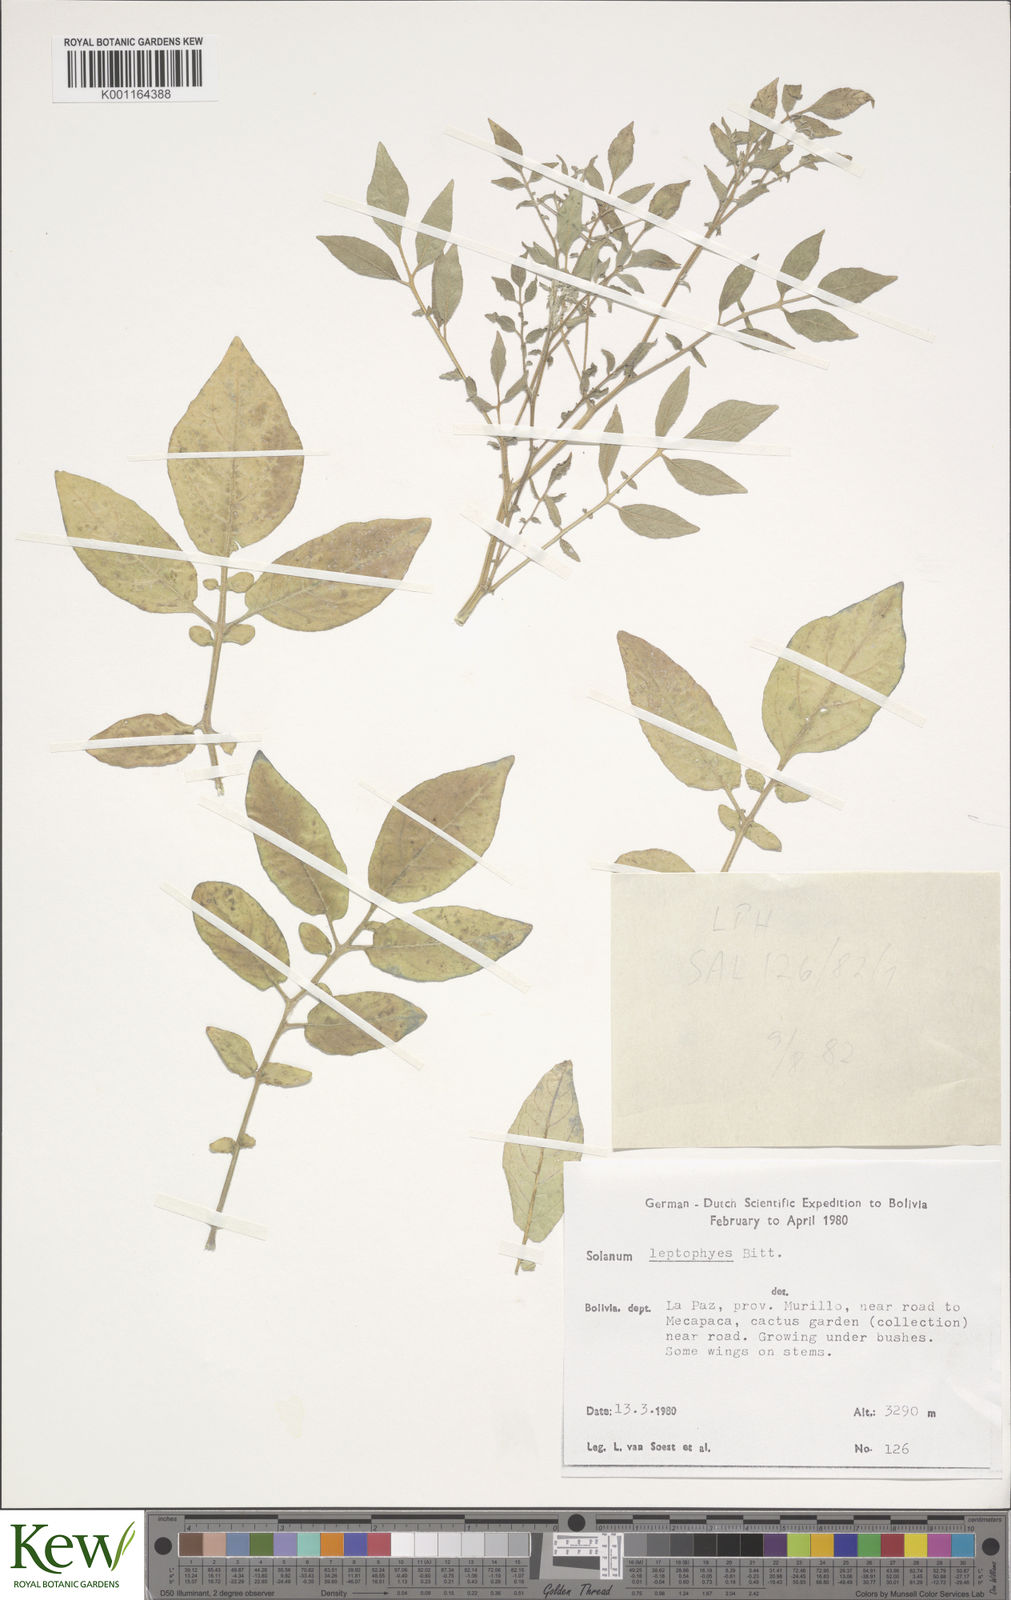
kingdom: Plantae
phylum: Tracheophyta
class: Magnoliopsida
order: Solanales
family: Solanaceae
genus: Solanum
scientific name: Solanum brevicaule
